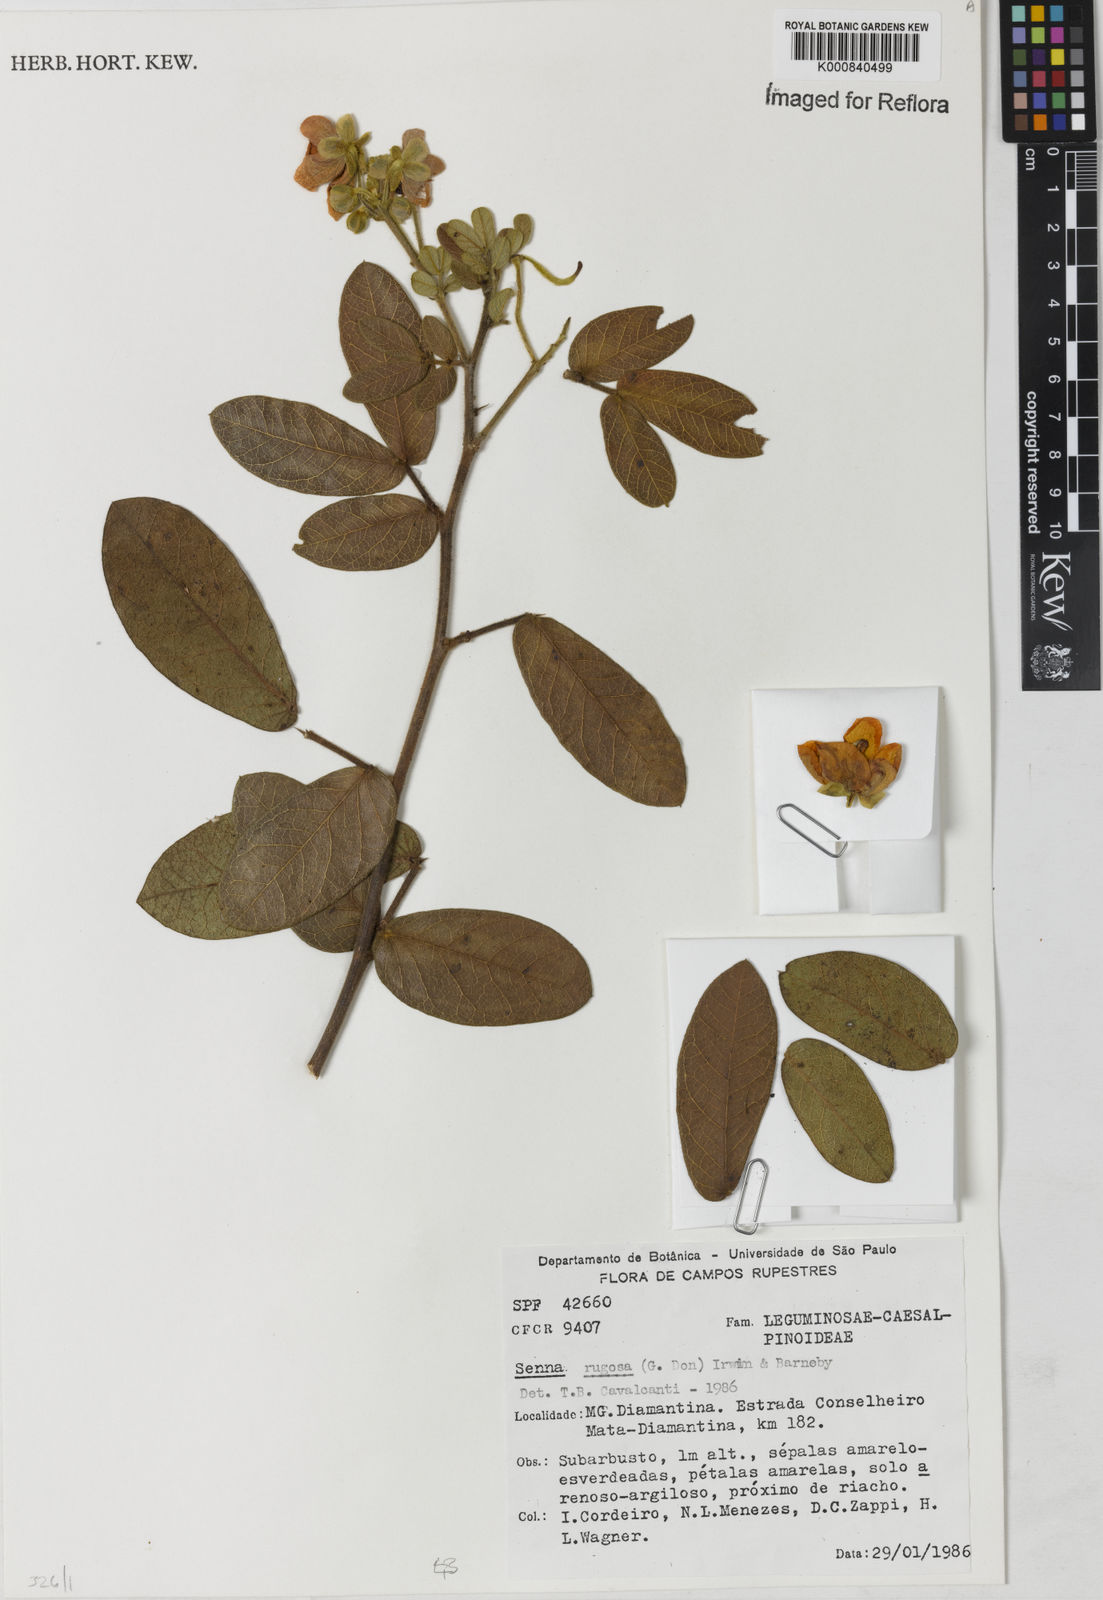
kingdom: Plantae
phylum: Tracheophyta
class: Magnoliopsida
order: Fabales
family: Fabaceae
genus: Senna
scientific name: Senna rugosa
